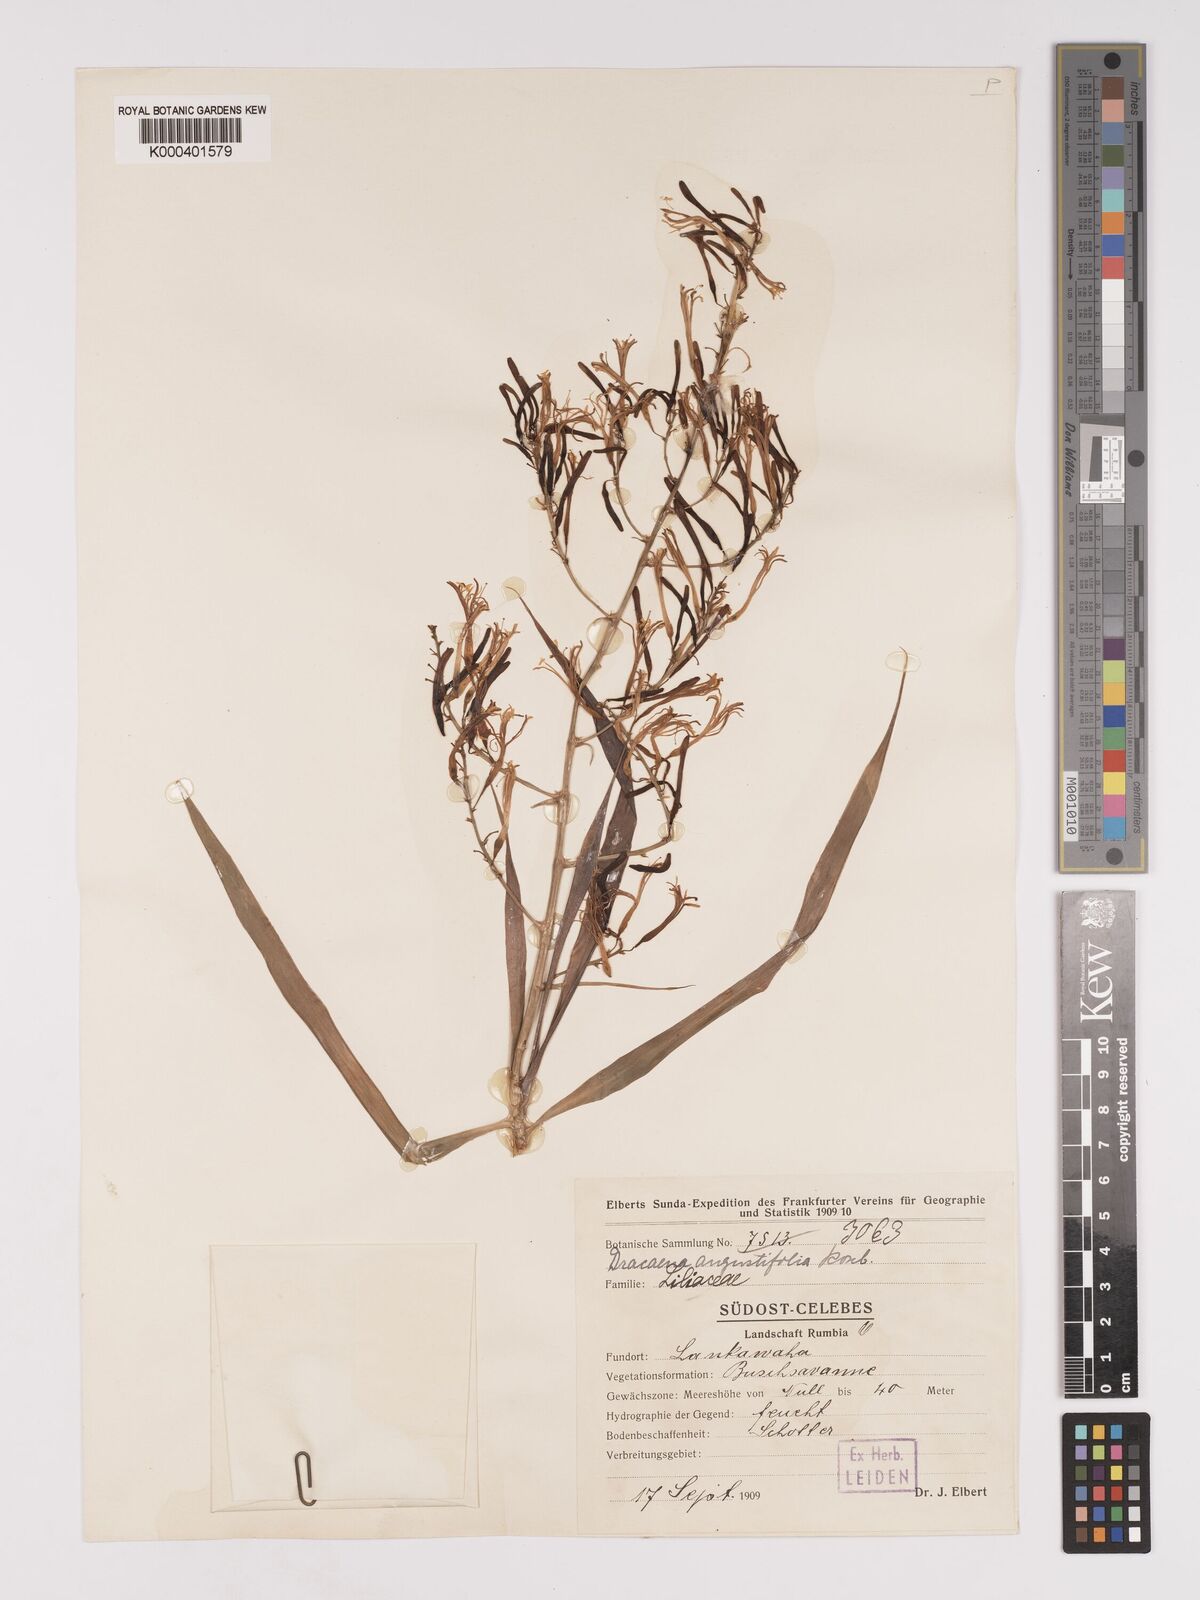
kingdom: Plantae
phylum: Tracheophyta
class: Liliopsida
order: Asparagales
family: Asparagaceae
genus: Dracaena
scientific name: Dracaena angustifolia
